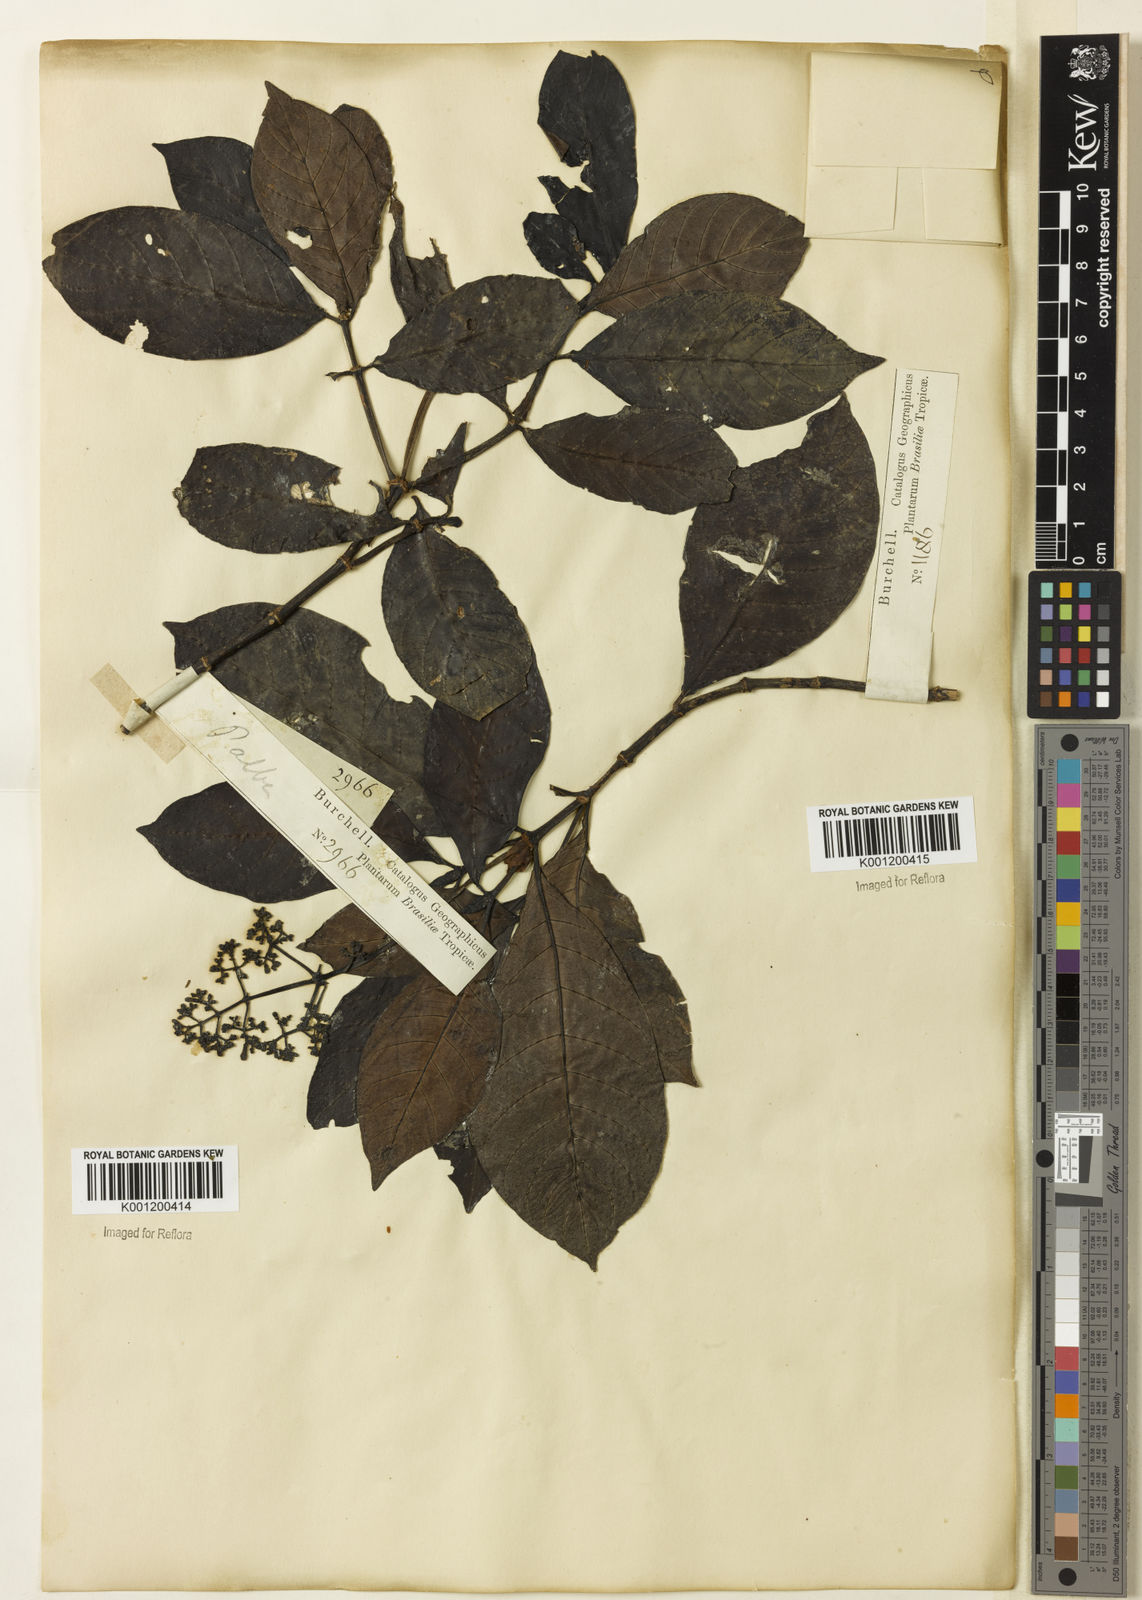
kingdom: Plantae
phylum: Tracheophyta
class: Magnoliopsida
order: Gentianales
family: Rubiaceae
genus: Psychotria
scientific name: Psychotria carthagenensis
